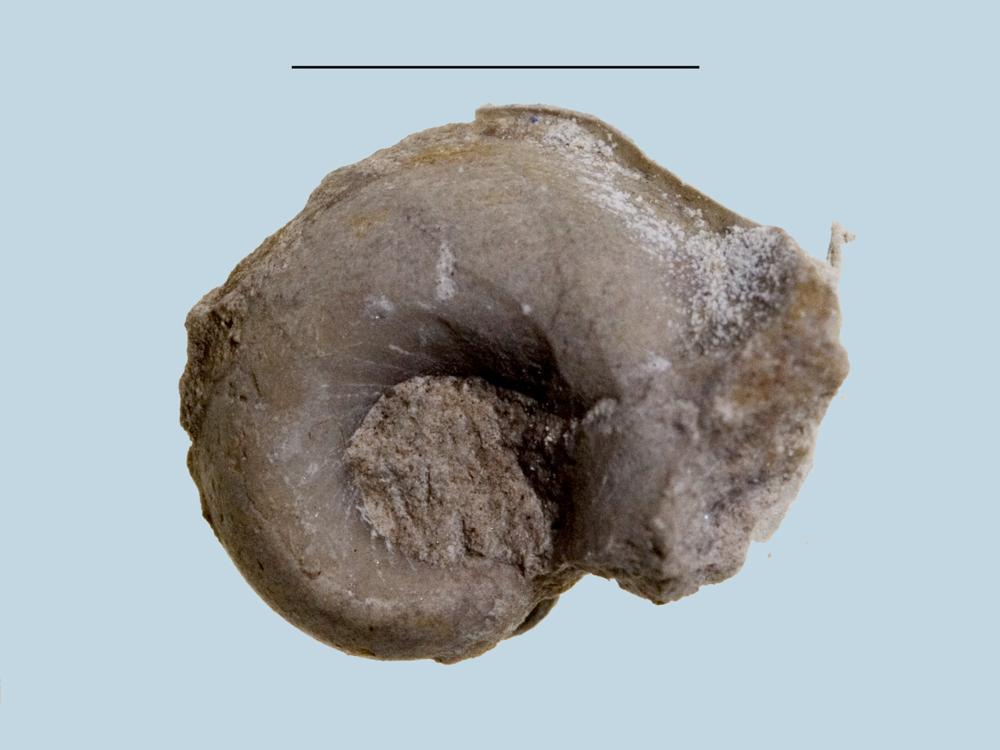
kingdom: Animalia
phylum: Mollusca
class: Gastropoda
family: Bucaniidae
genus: Bucania
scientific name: Bucania Bellerophon czekanowskii
